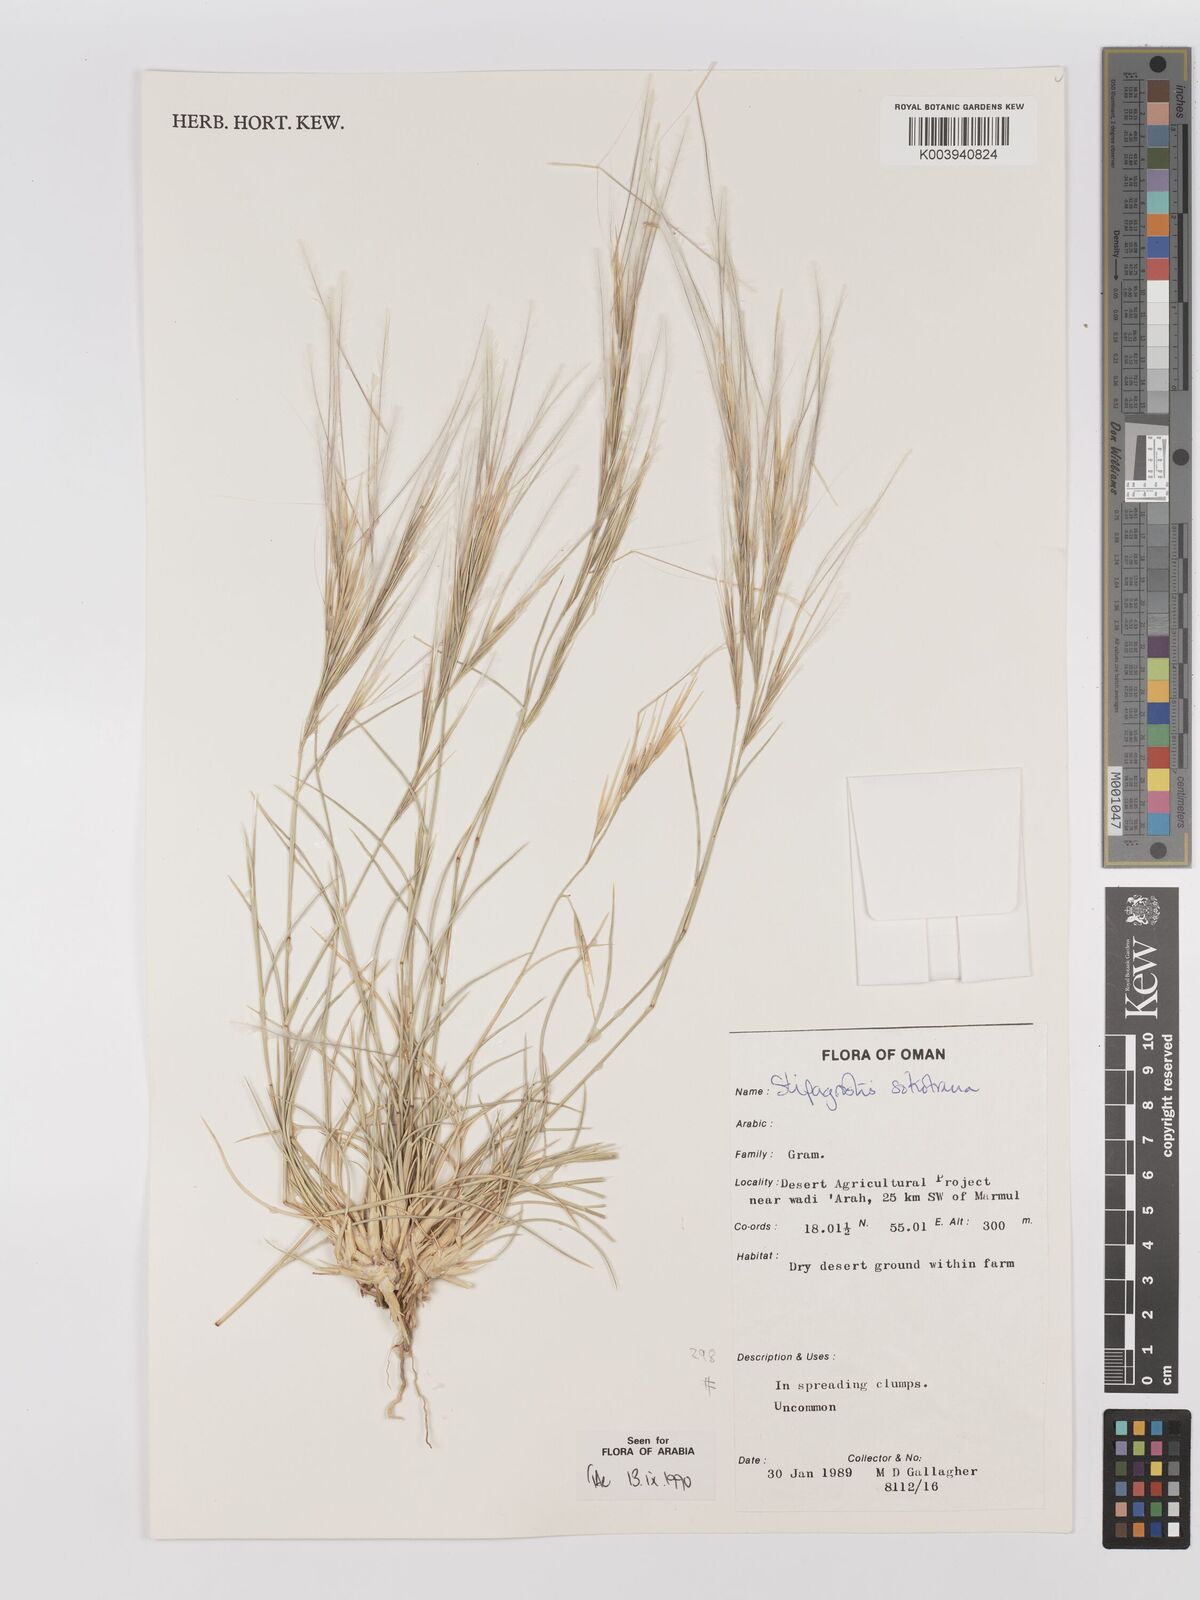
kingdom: Plantae
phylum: Tracheophyta
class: Liliopsida
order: Poales
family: Poaceae
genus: Stipagrostis
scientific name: Stipagrostis sokotrana
